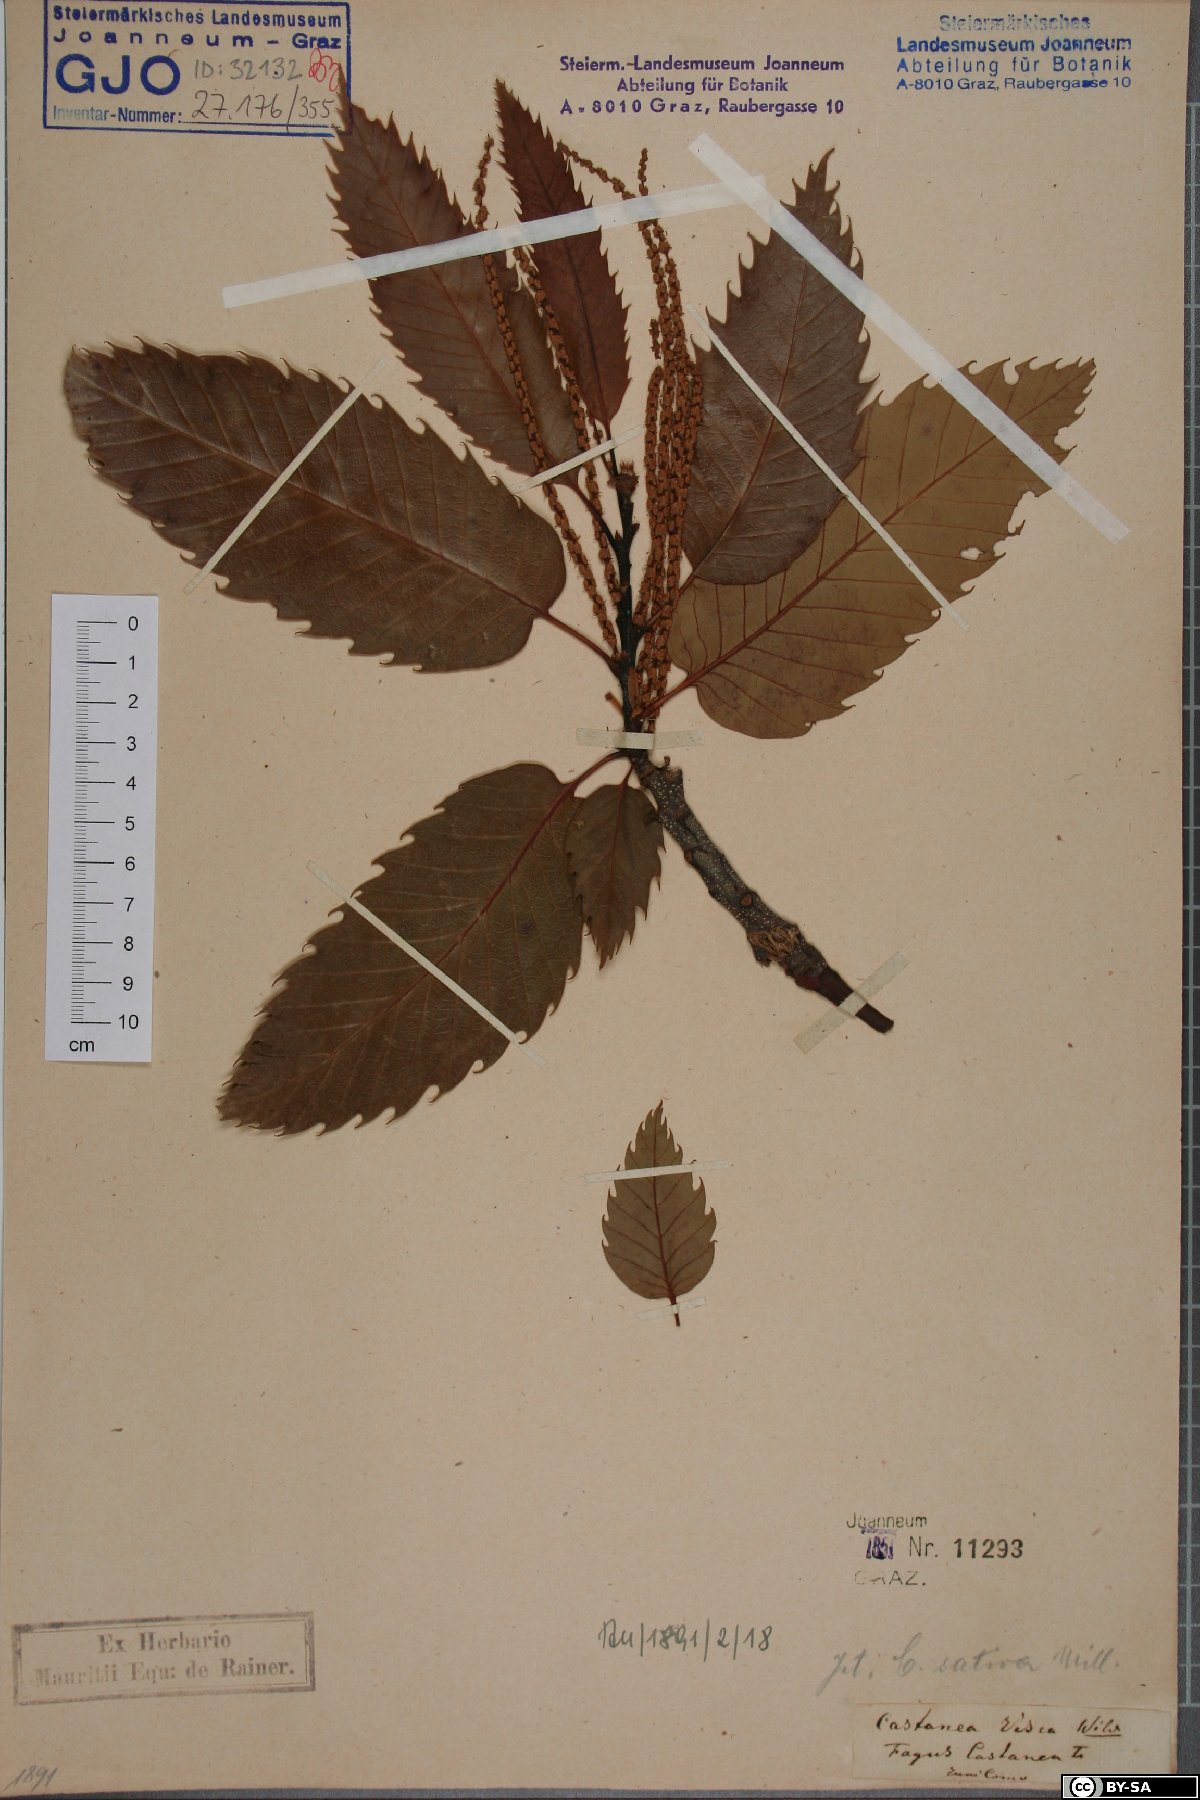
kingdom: Plantae
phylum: Tracheophyta
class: Magnoliopsida
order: Fagales
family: Fagaceae
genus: Castanea
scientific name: Castanea sativa
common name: Sweet chestnut
